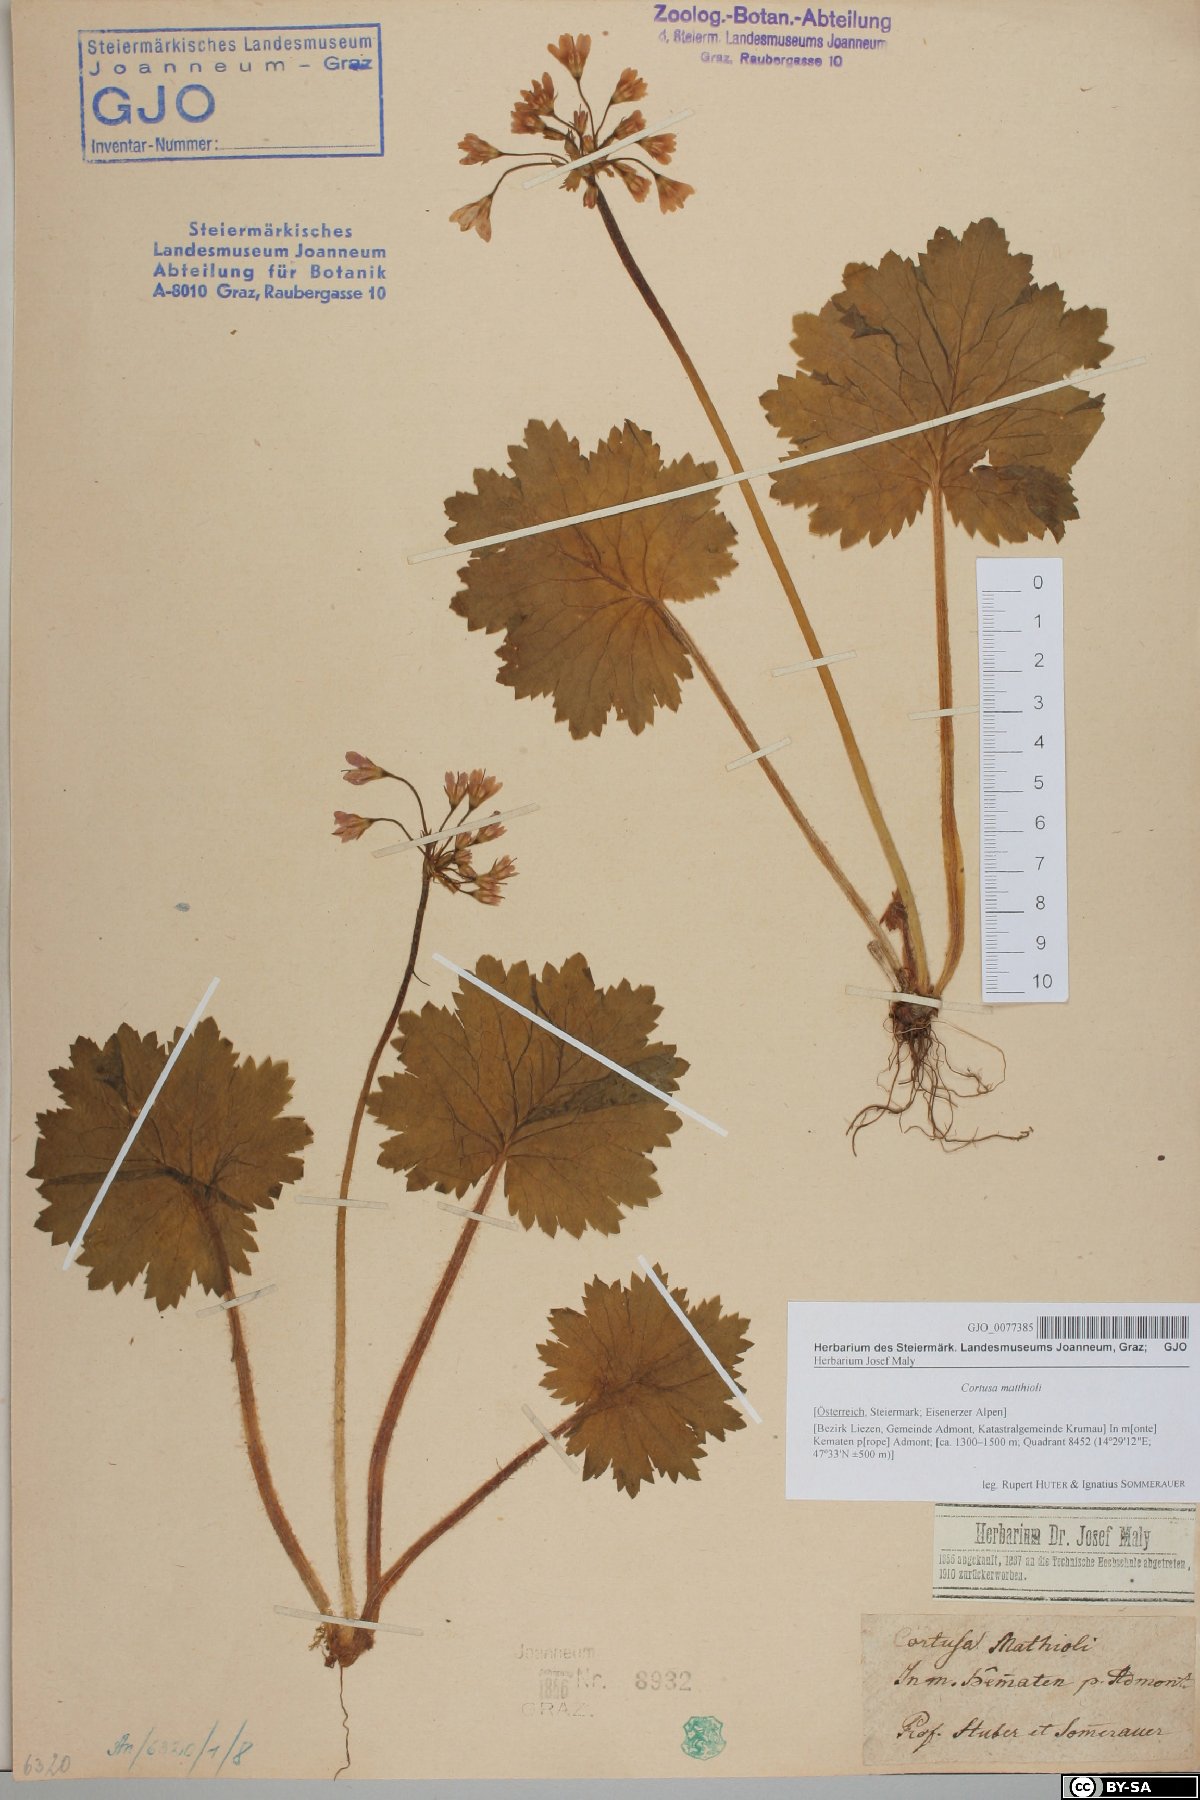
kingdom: Plantae
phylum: Tracheophyta
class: Magnoliopsida
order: Ericales
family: Primulaceae
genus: Primula
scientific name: Primula matthioli
